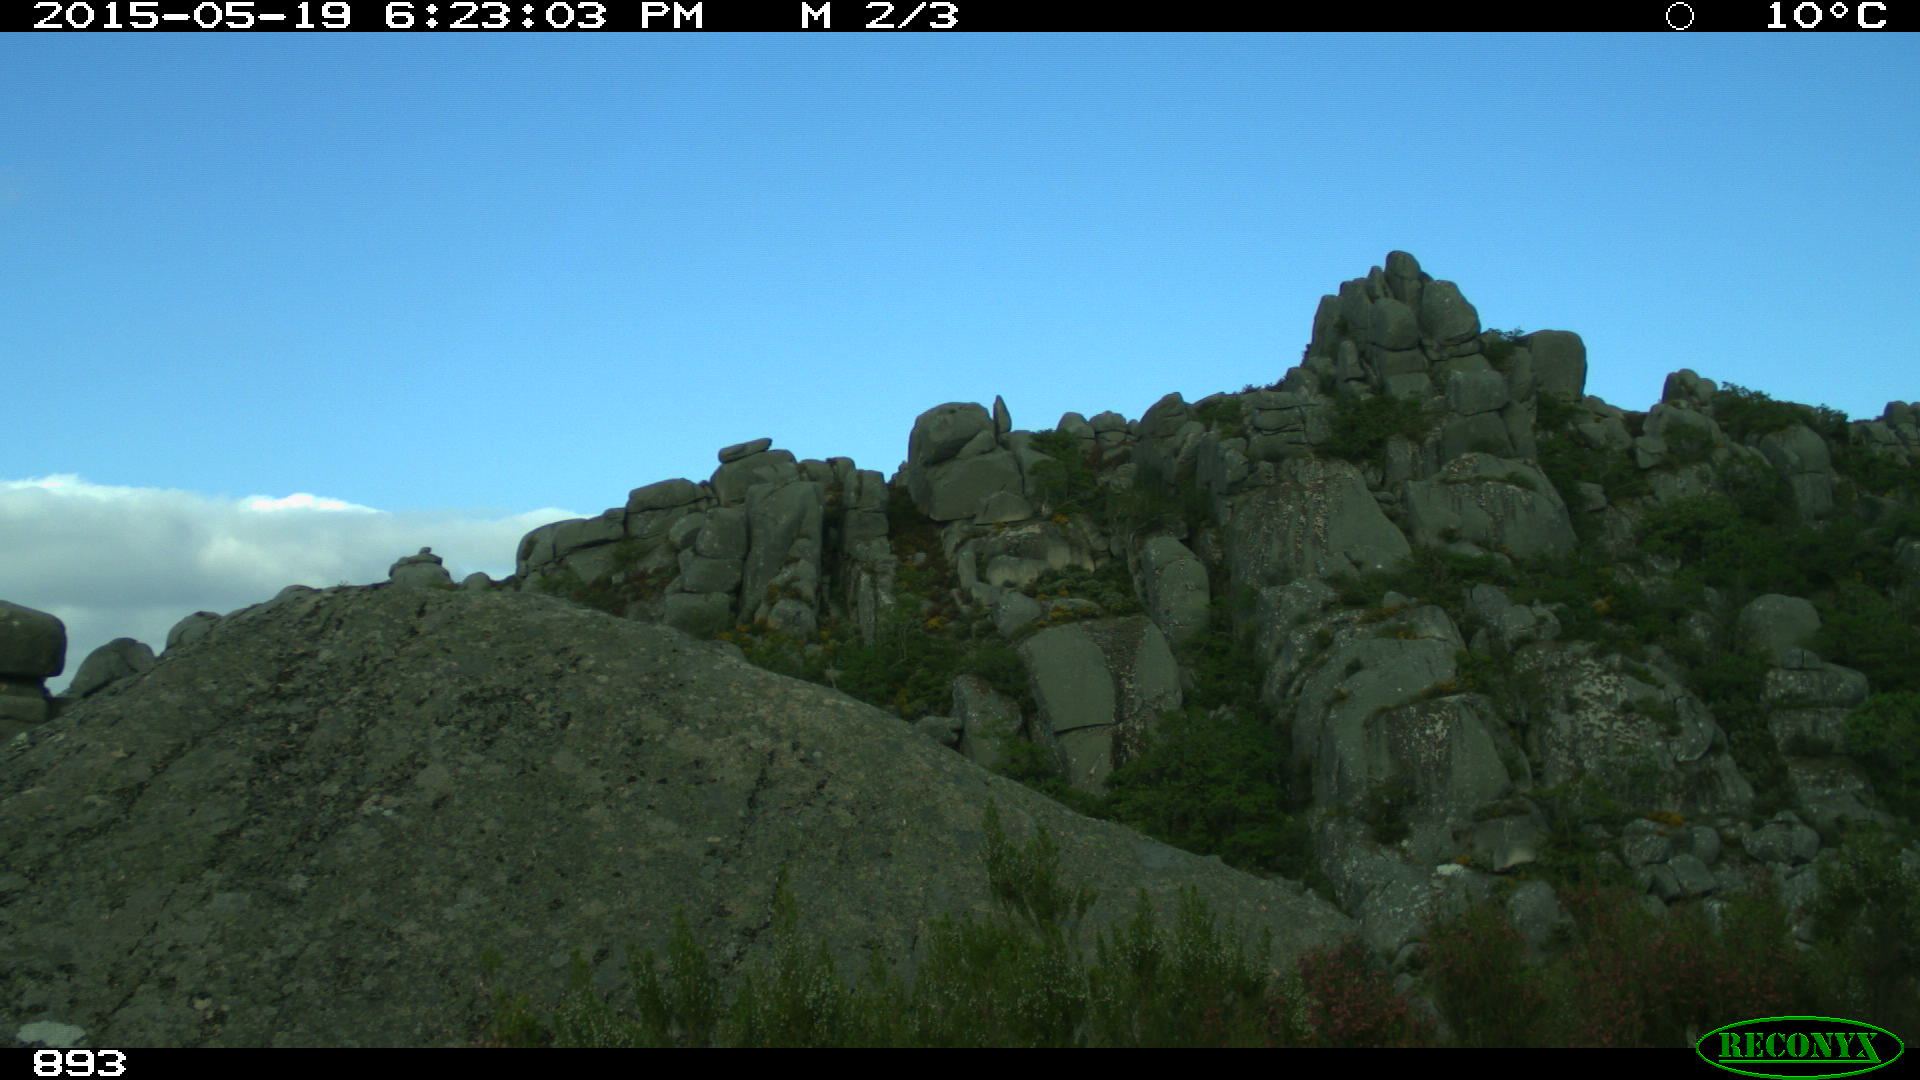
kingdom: Animalia
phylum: Chordata
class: Mammalia
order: Perissodactyla
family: Equidae
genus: Equus
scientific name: Equus caballus
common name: Horse
